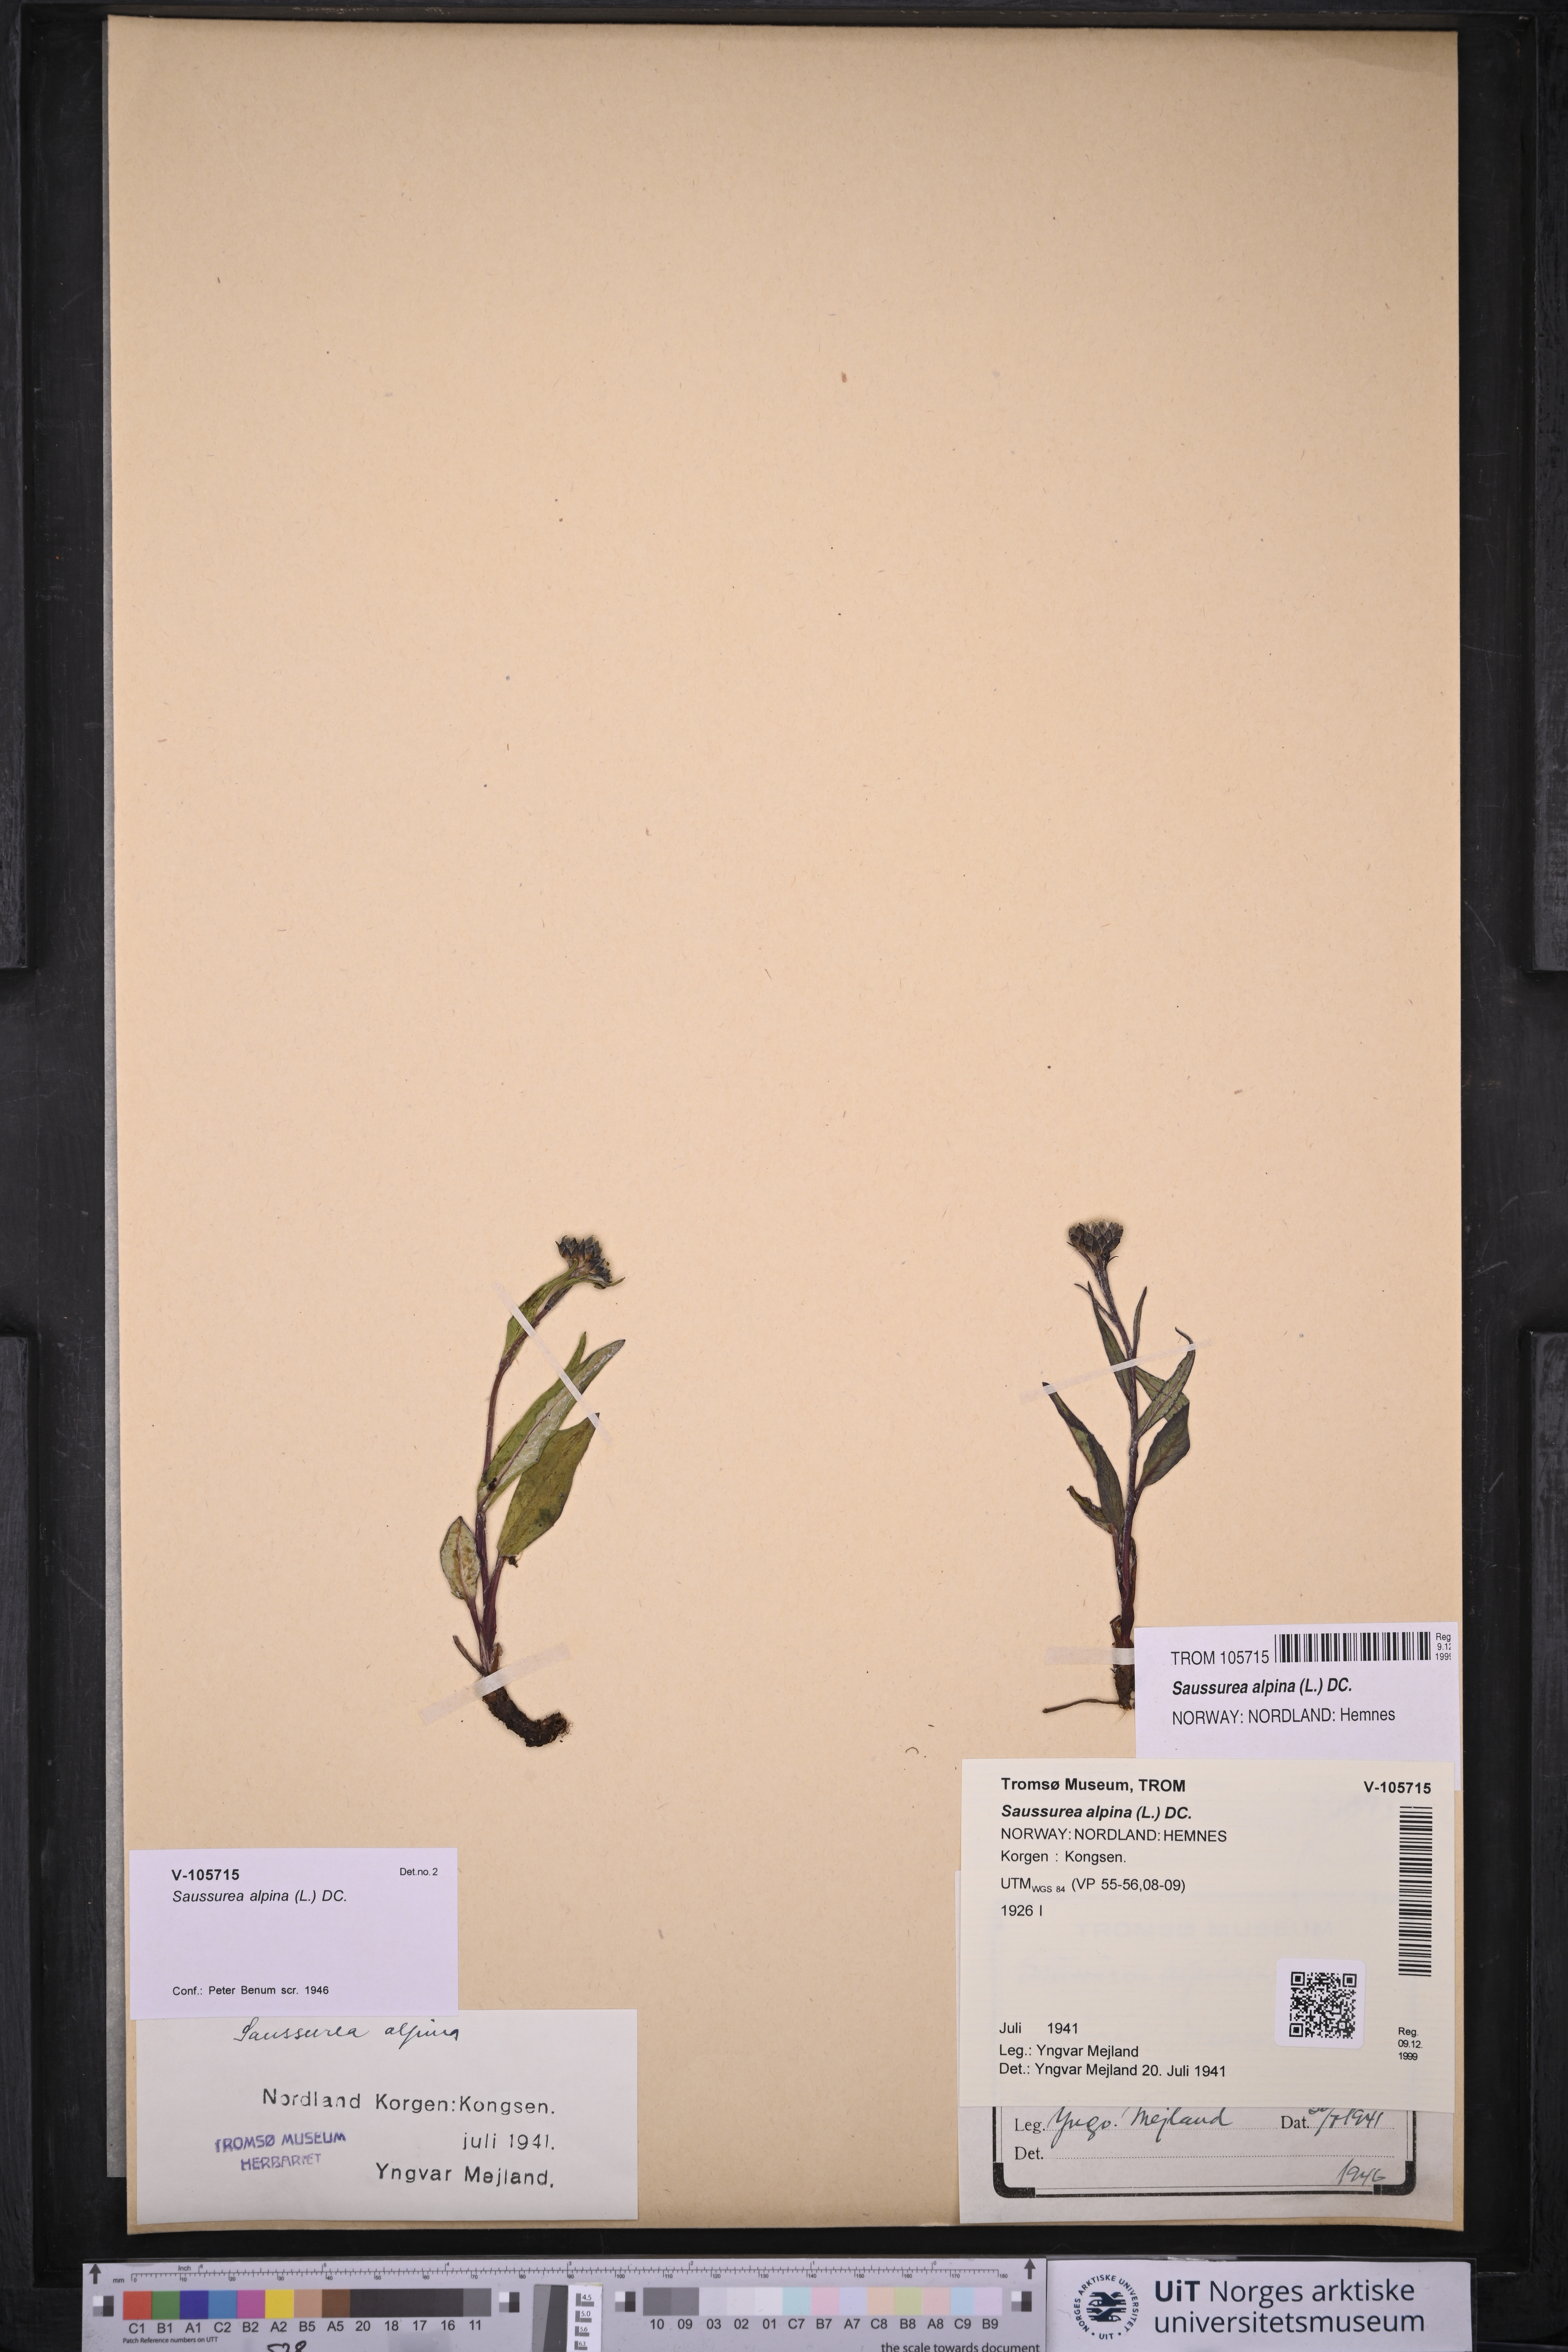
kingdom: Plantae
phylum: Tracheophyta
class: Magnoliopsida
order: Asterales
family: Asteraceae
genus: Saussurea
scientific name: Saussurea alpina
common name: Alpine saw-wort
